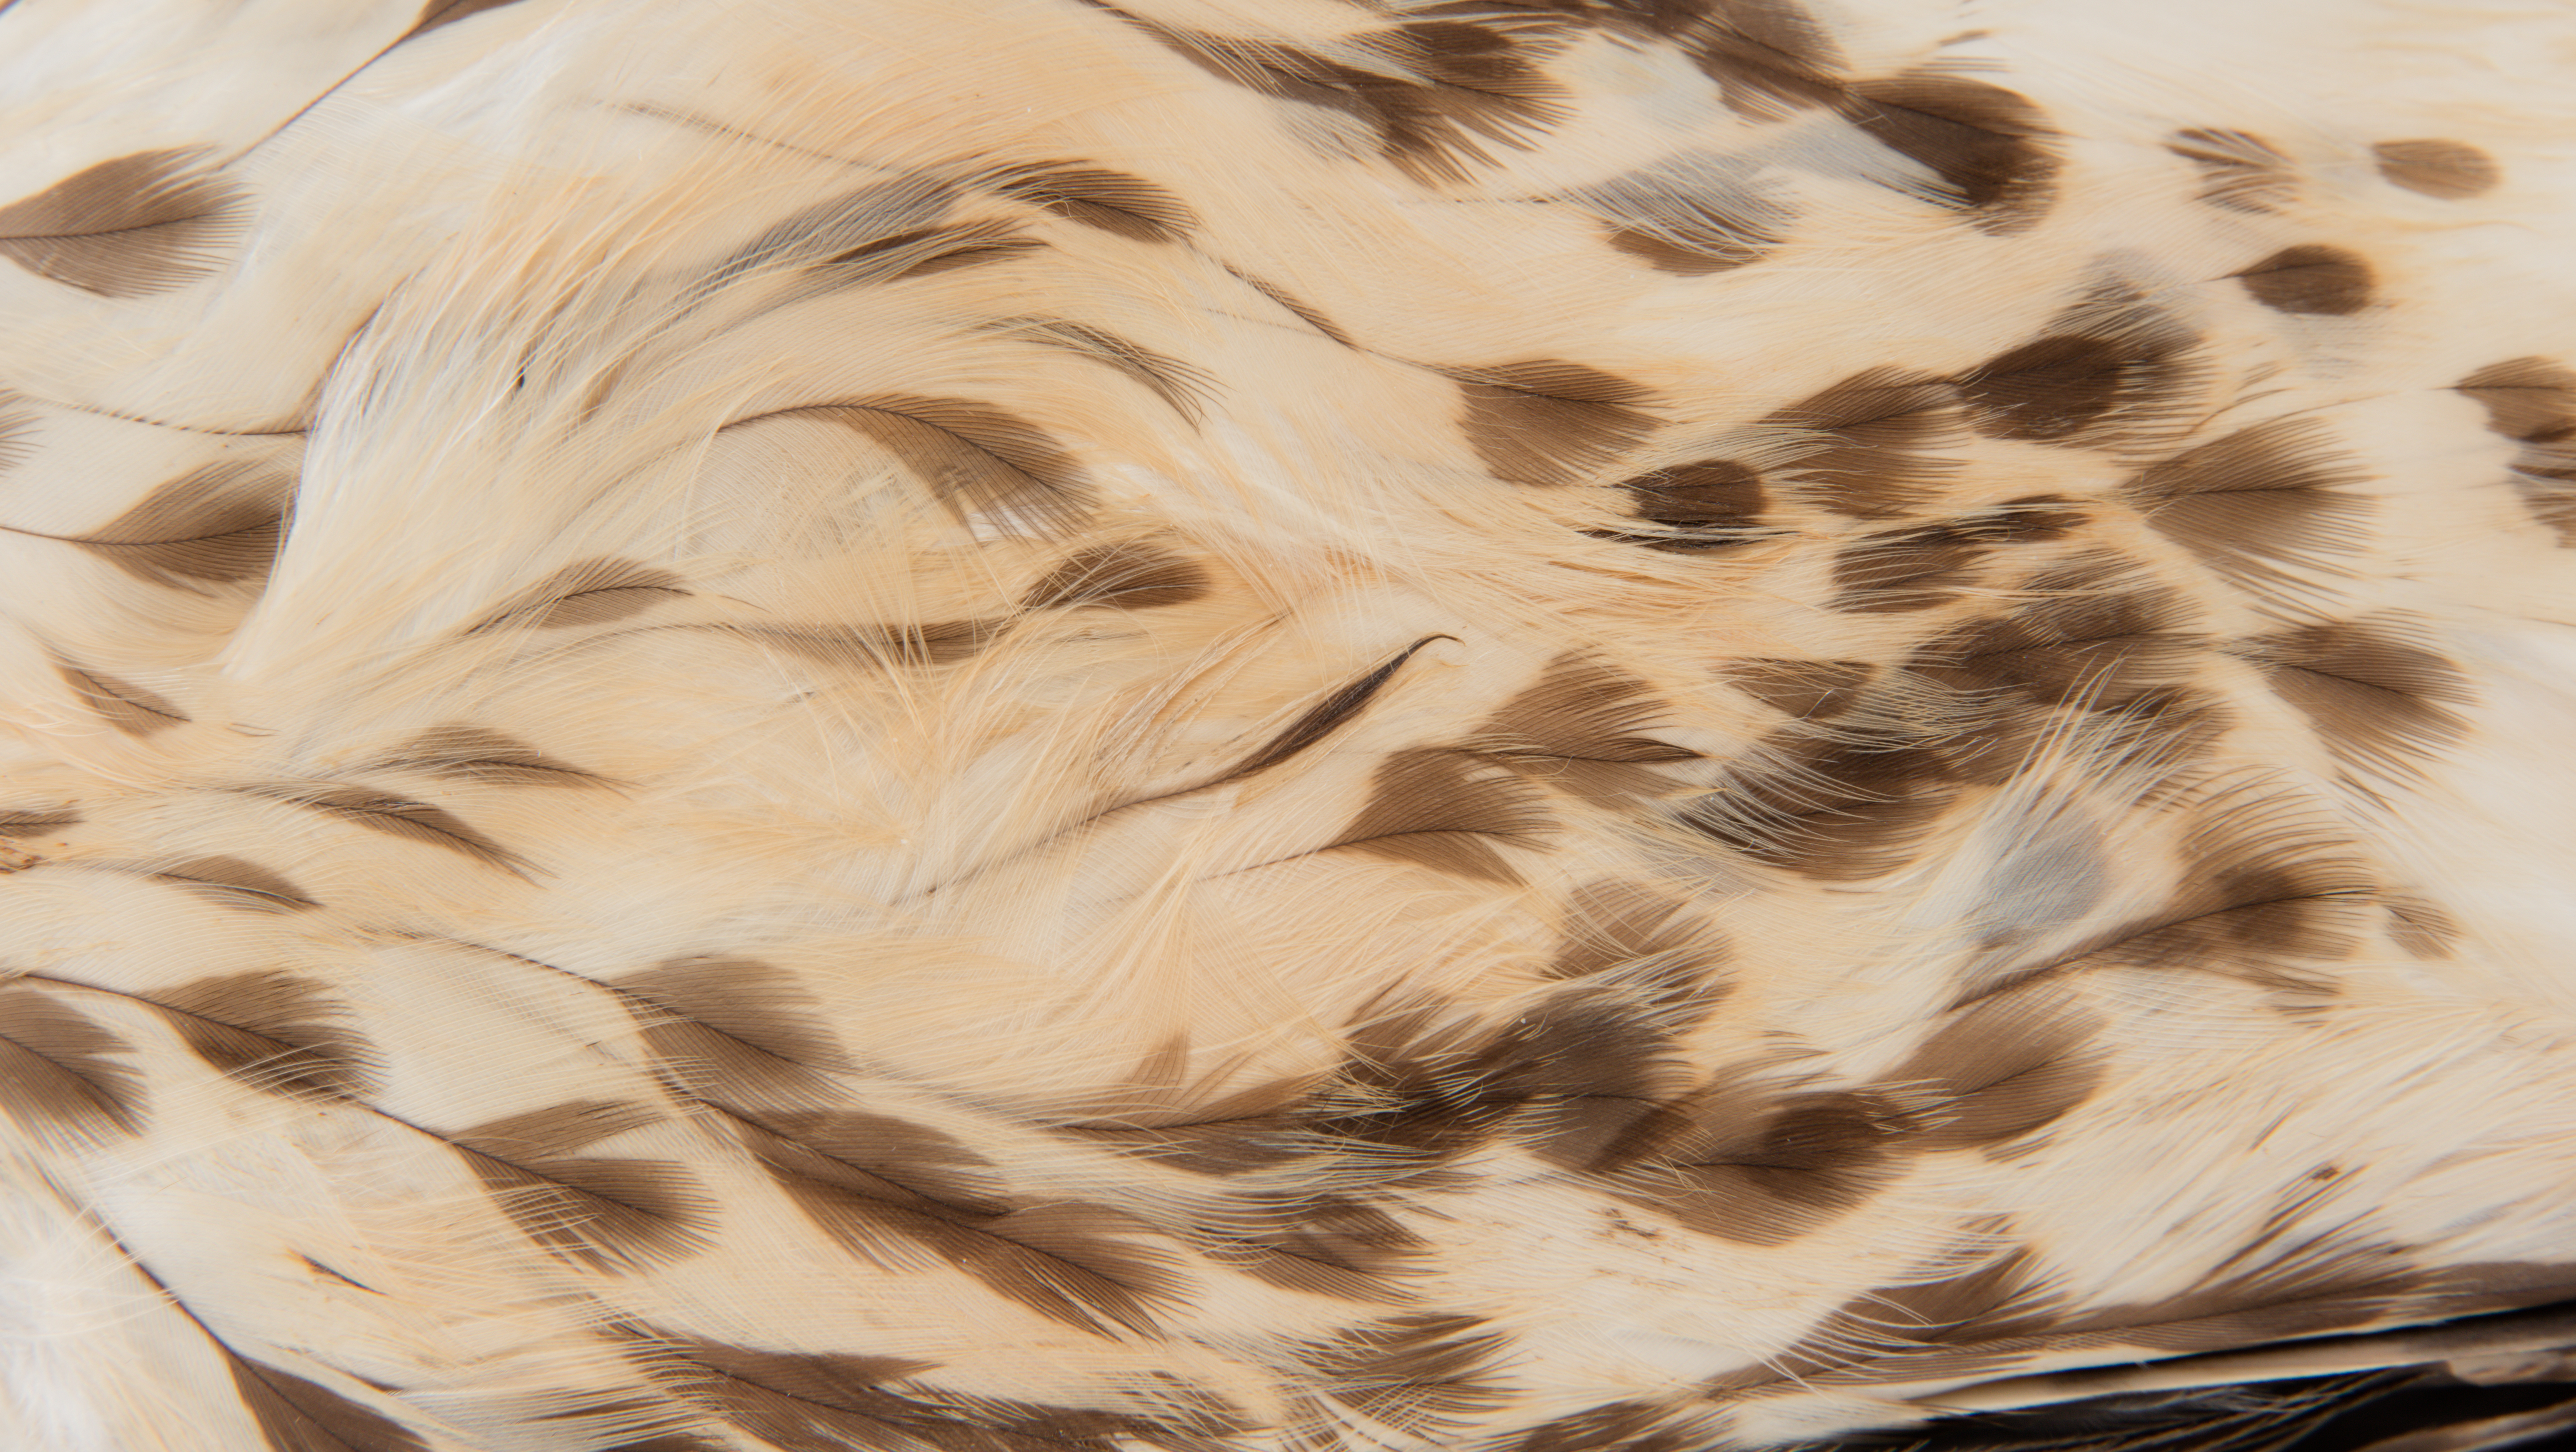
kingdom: Animalia
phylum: Chordata
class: Aves
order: Accipitriformes
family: Accipitridae
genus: Buteo
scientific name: Buteo lineatus
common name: Red-shouldered hawk
